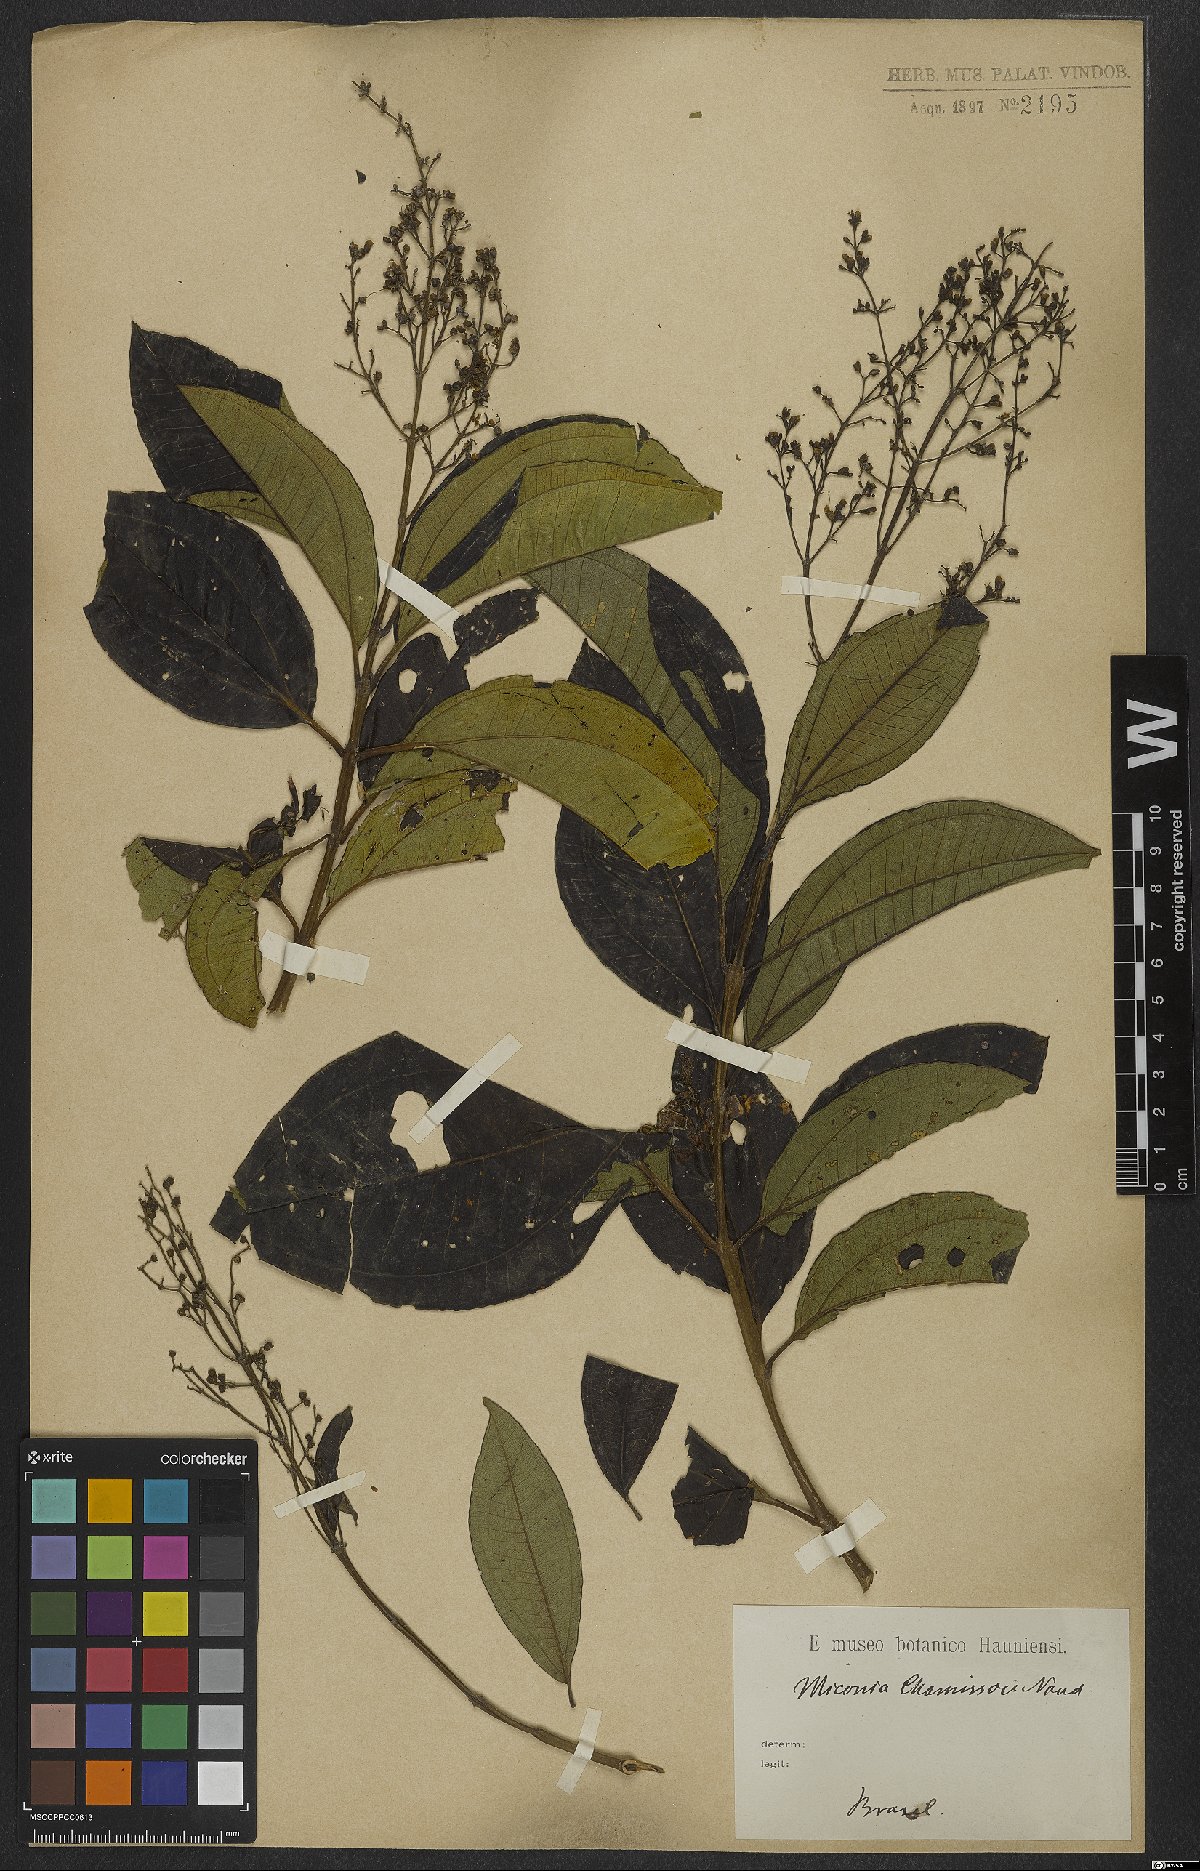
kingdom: Plantae
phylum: Tracheophyta
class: Magnoliopsida
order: Myrtales
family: Melastomataceae
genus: Miconia
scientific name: Miconia chamissois
